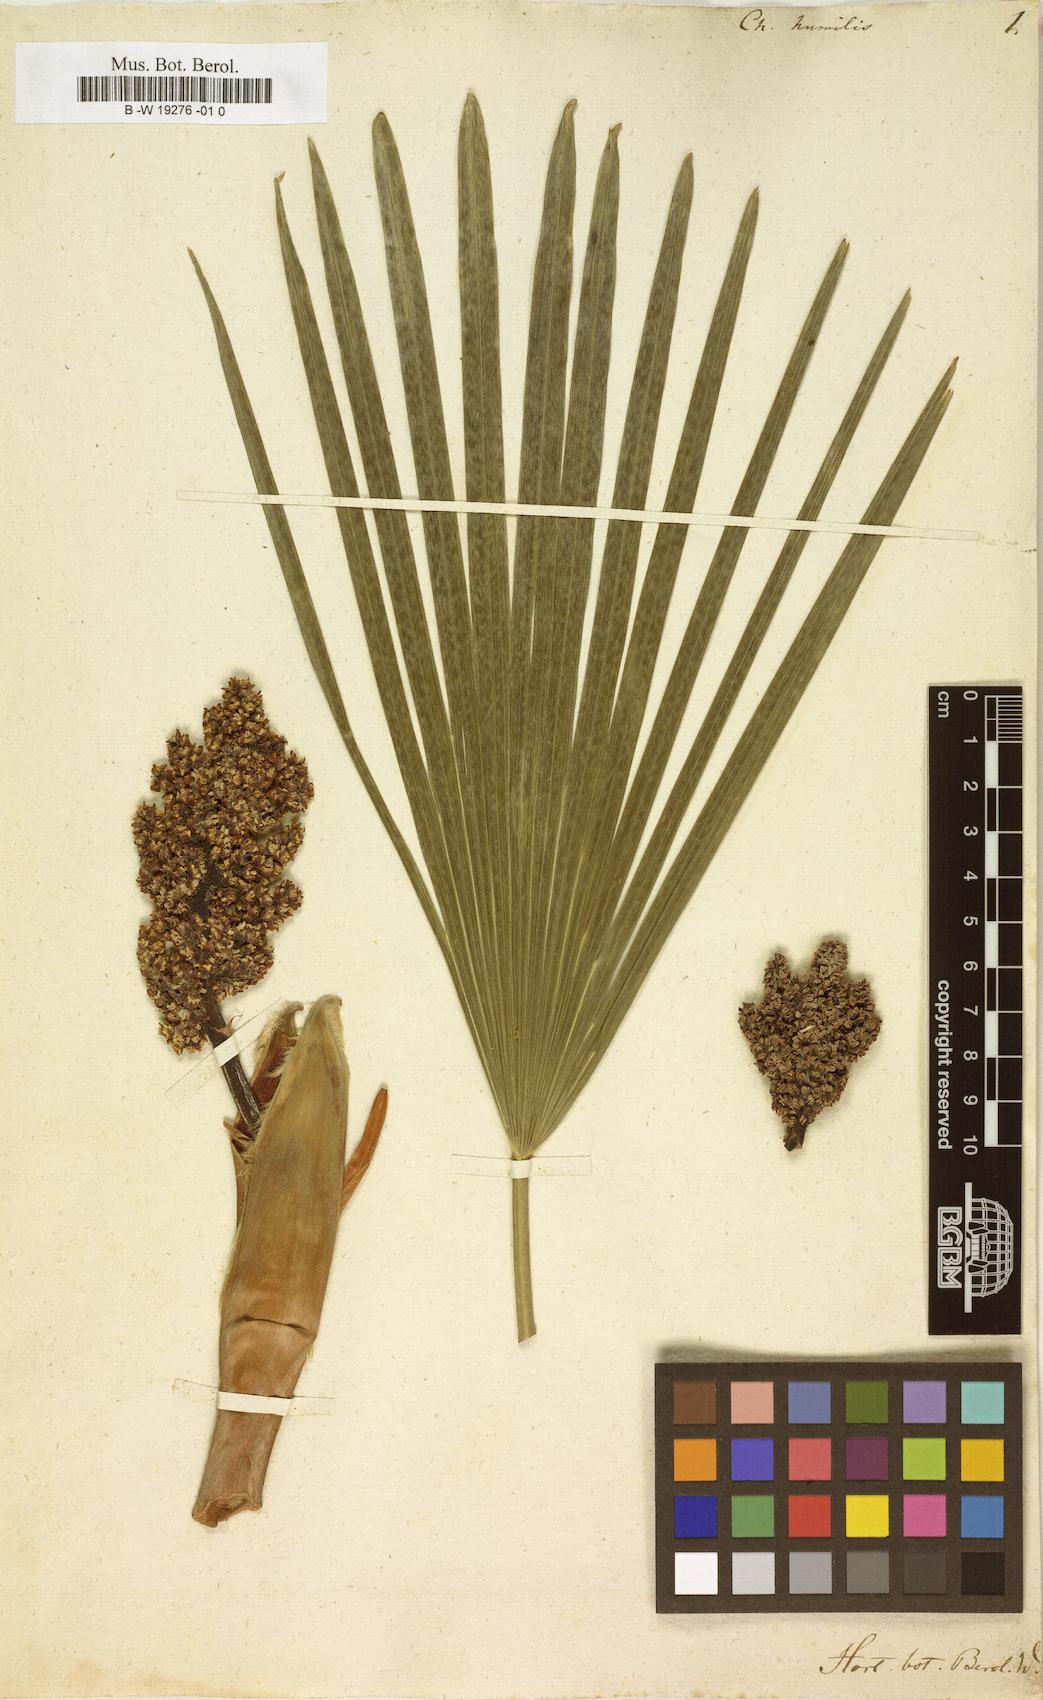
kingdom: Plantae
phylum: Tracheophyta
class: Liliopsida
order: Arecales
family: Arecaceae
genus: Chamaerops
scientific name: Chamaerops humilis
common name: Dwarf fan palm
